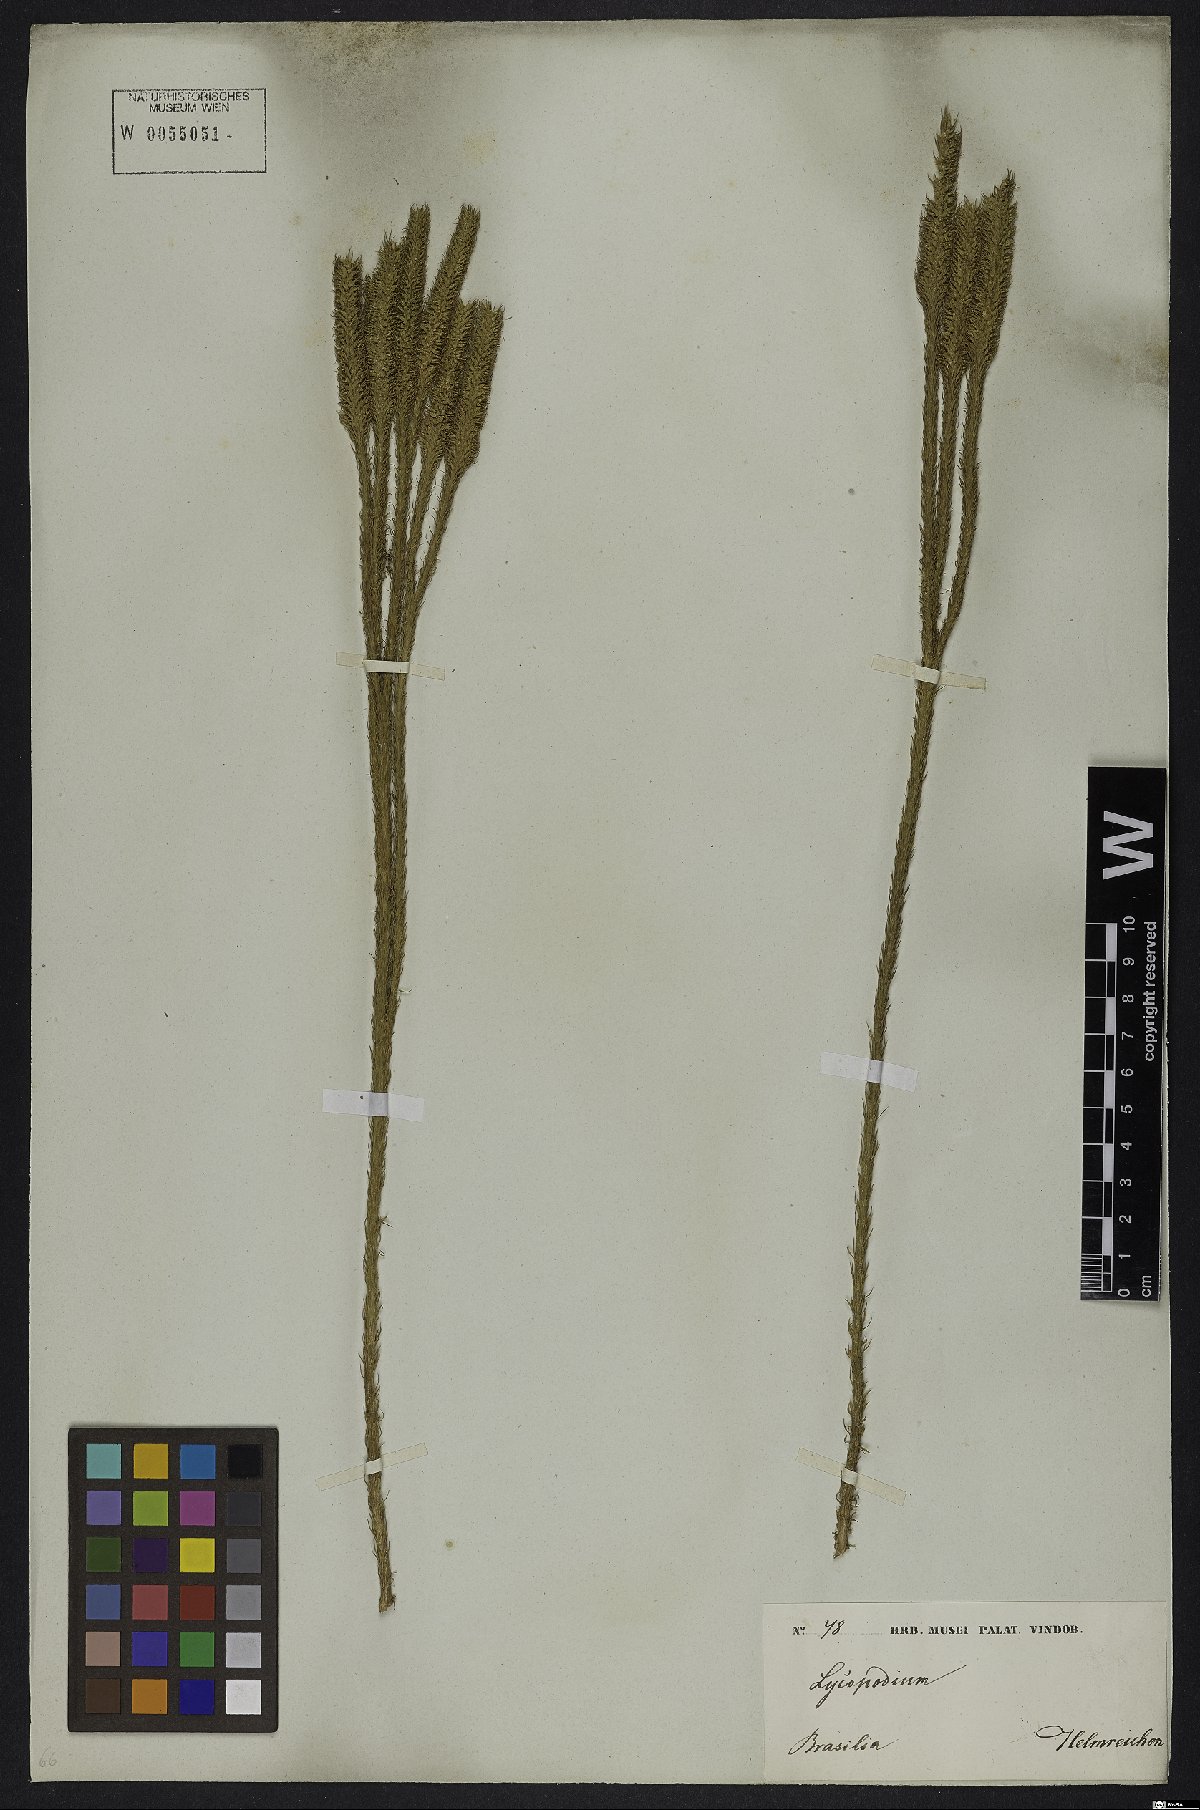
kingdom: Plantae
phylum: Tracheophyta
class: Lycopodiopsida
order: Lycopodiales
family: Lycopodiaceae
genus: Lycopodiella
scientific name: Lycopodiella geometra
